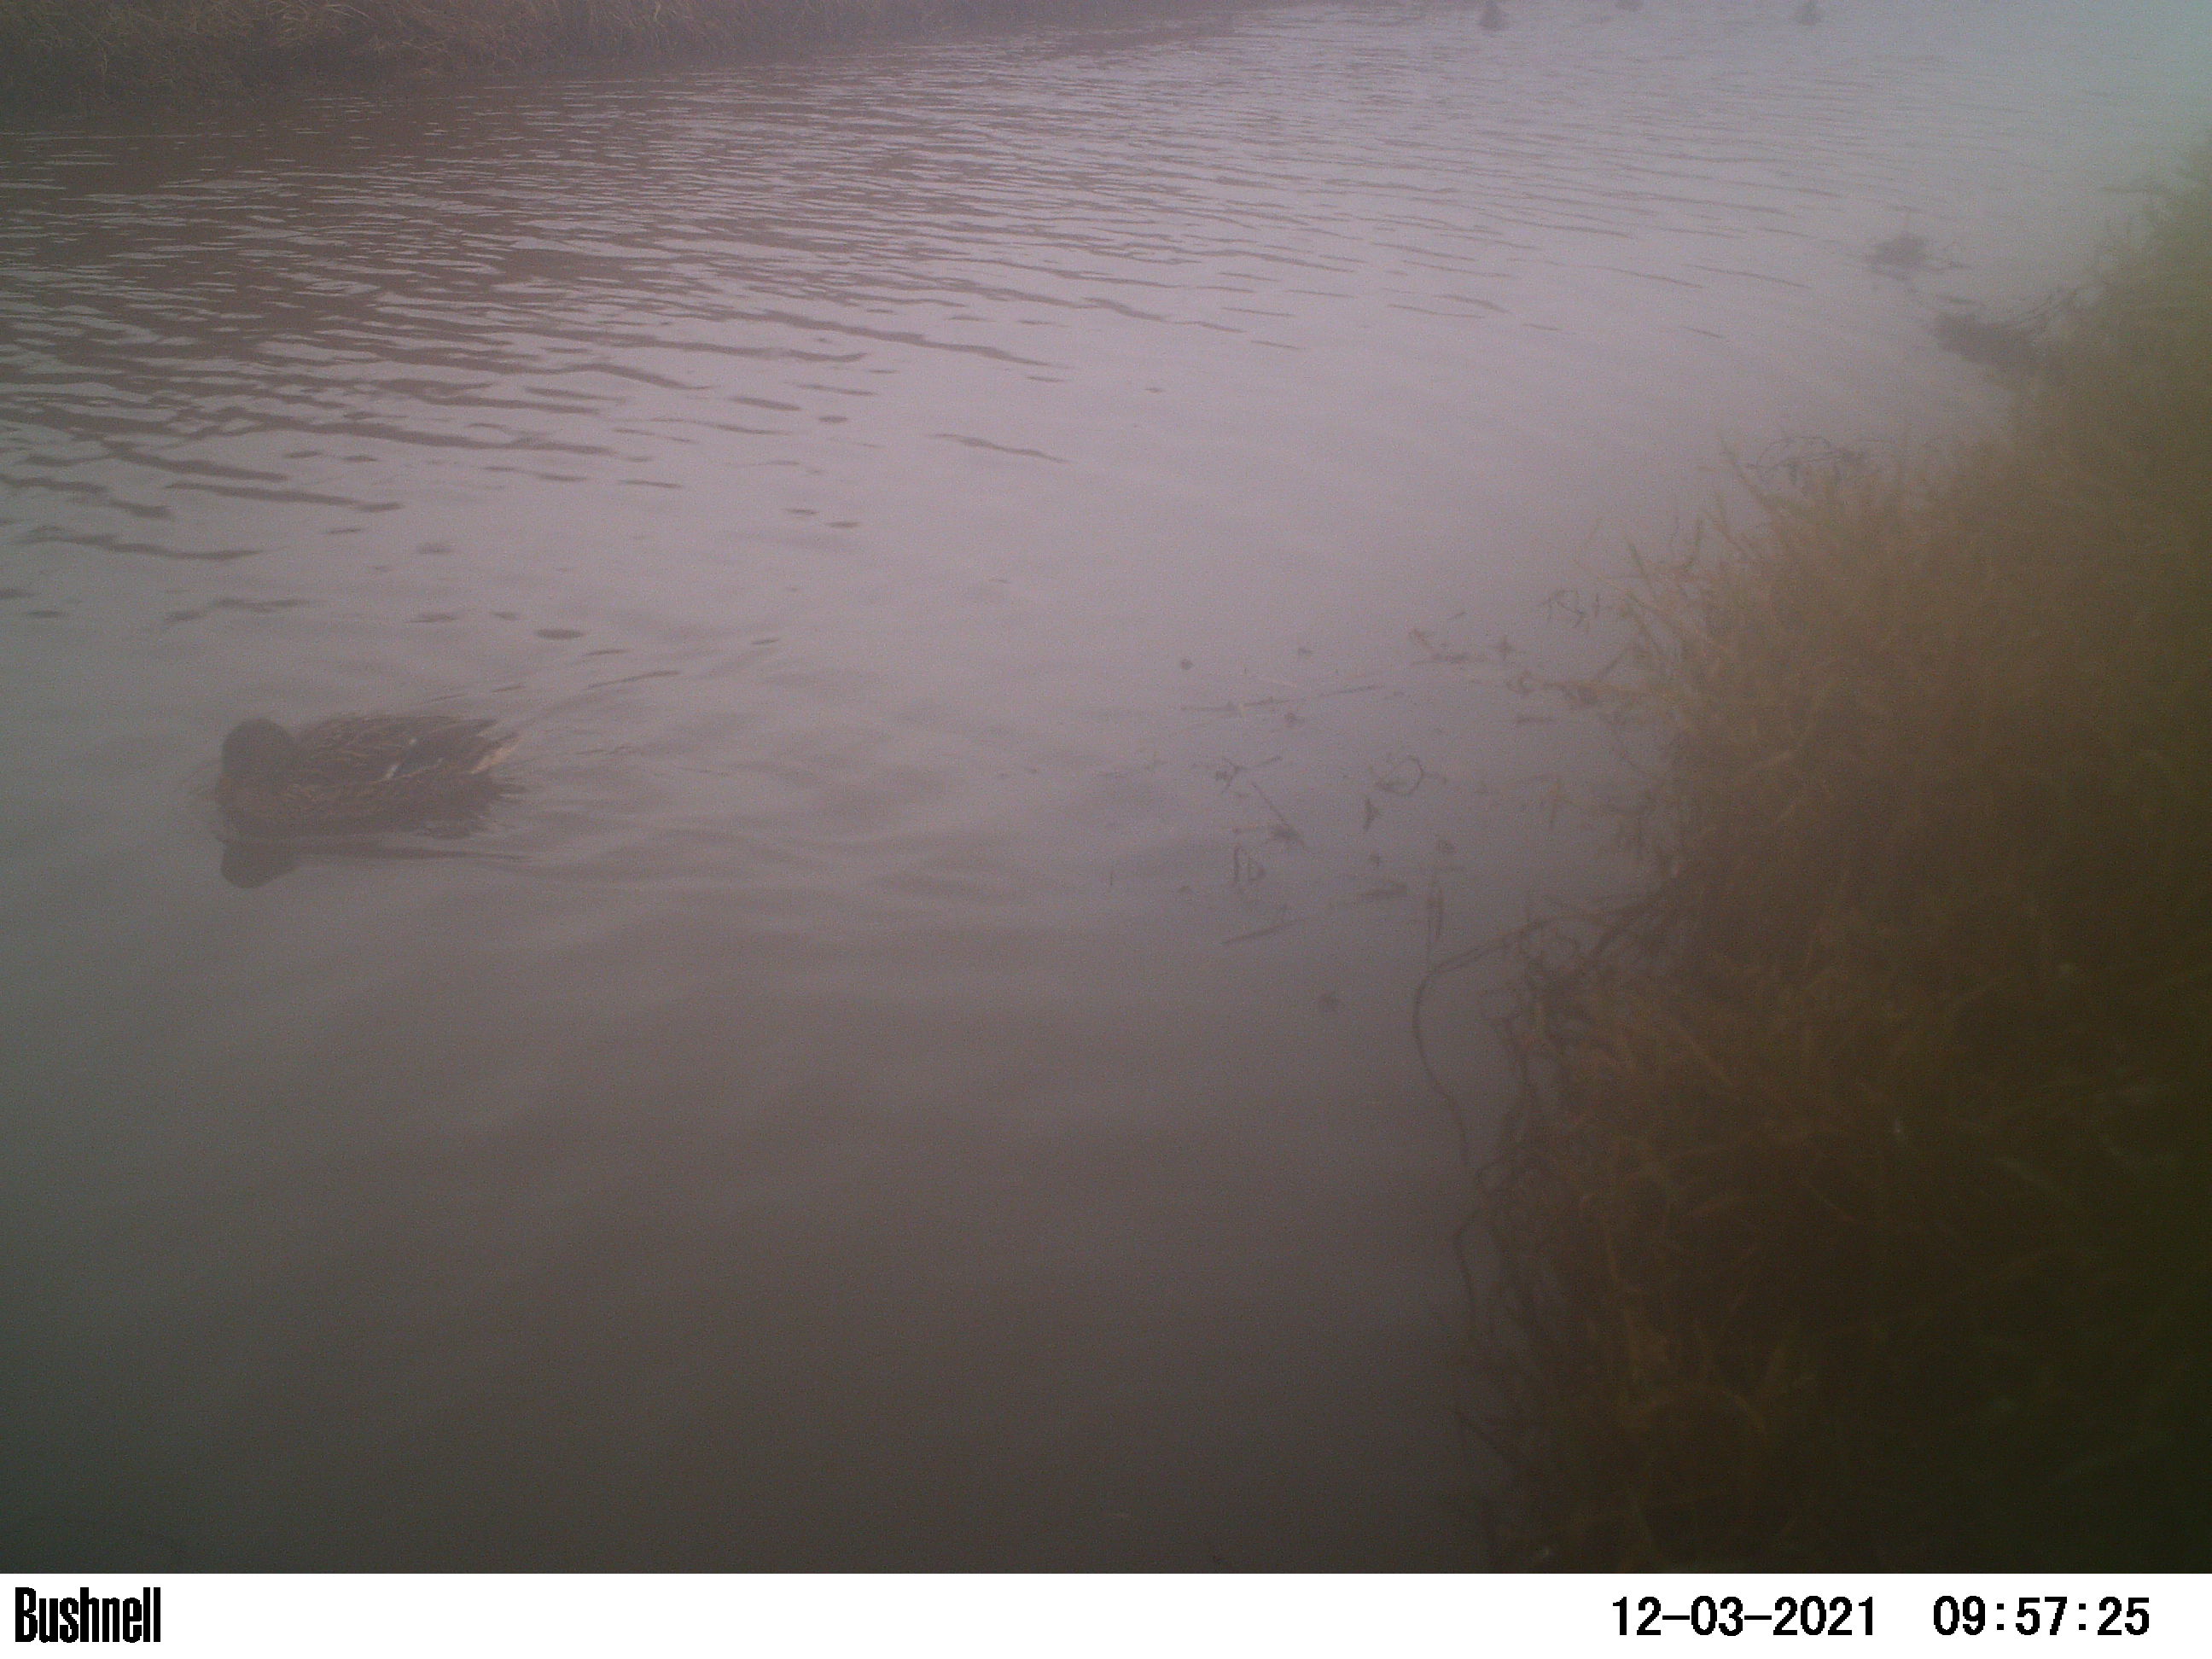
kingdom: Animalia
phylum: Chordata
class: Aves
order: Anseriformes
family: Anatidae
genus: Anas
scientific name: Anas
